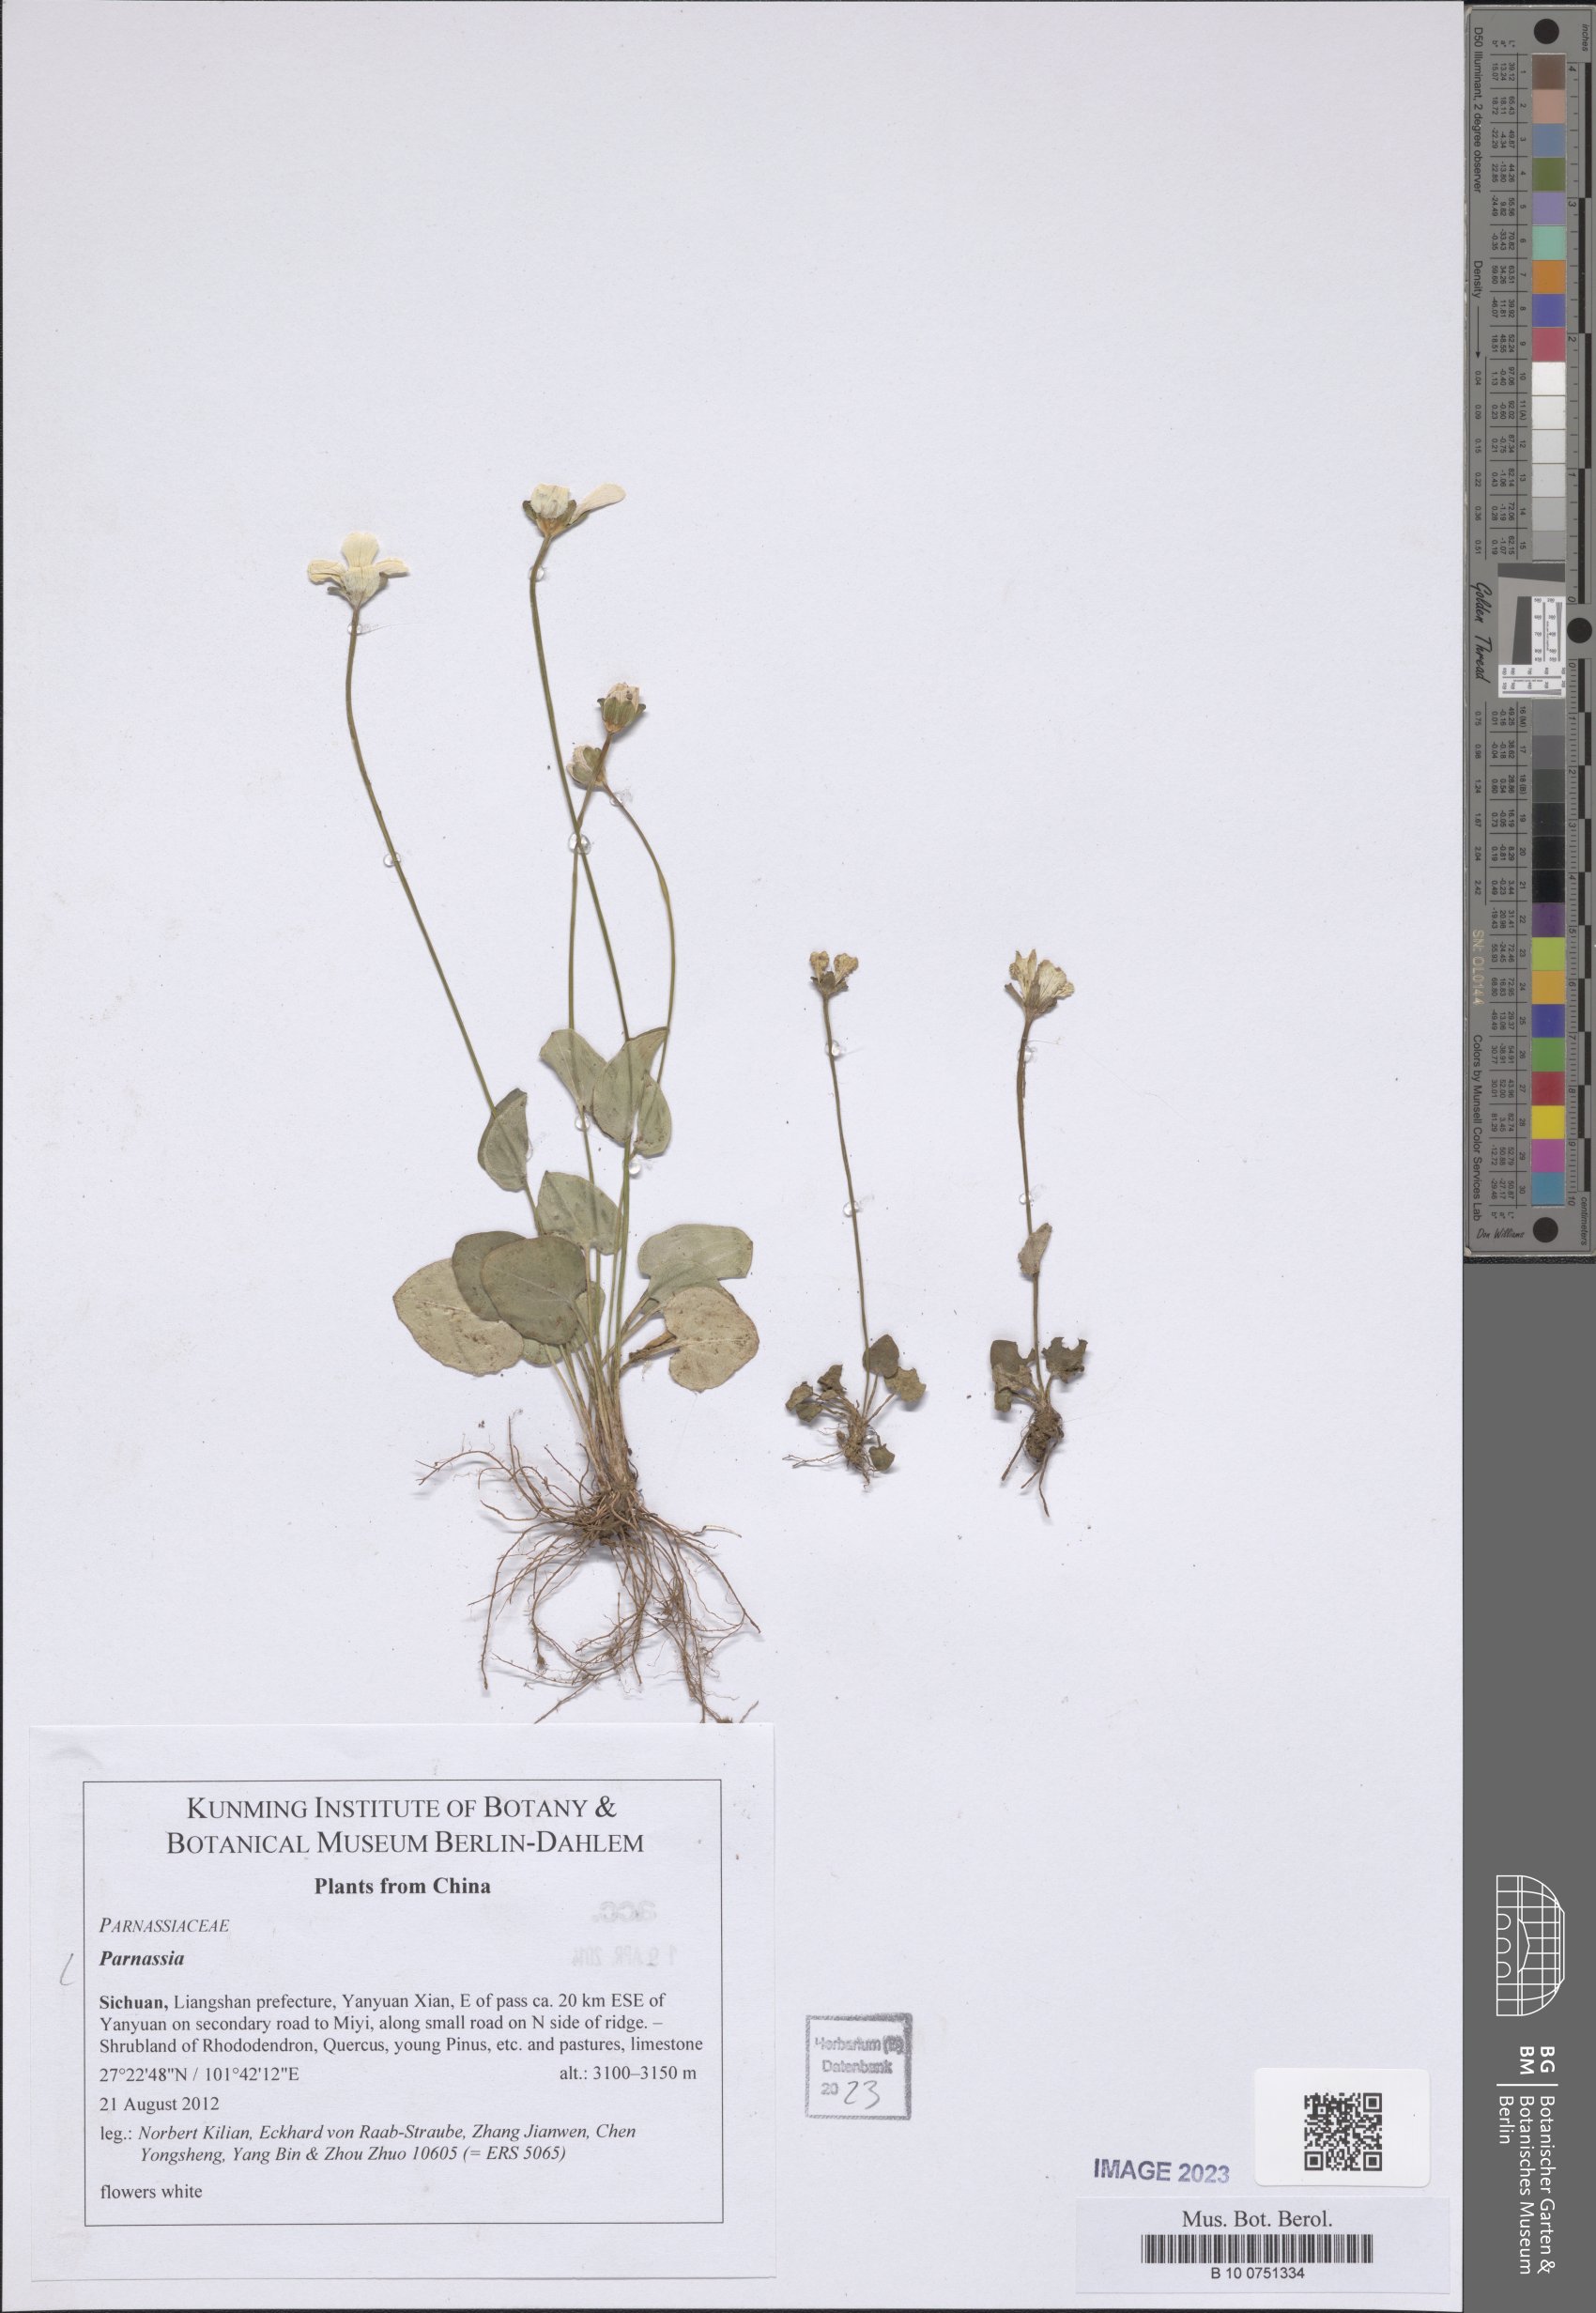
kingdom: Plantae
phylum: Tracheophyta
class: Magnoliopsida
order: Celastrales
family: Parnassiaceae
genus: Parnassia
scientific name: Parnassia
